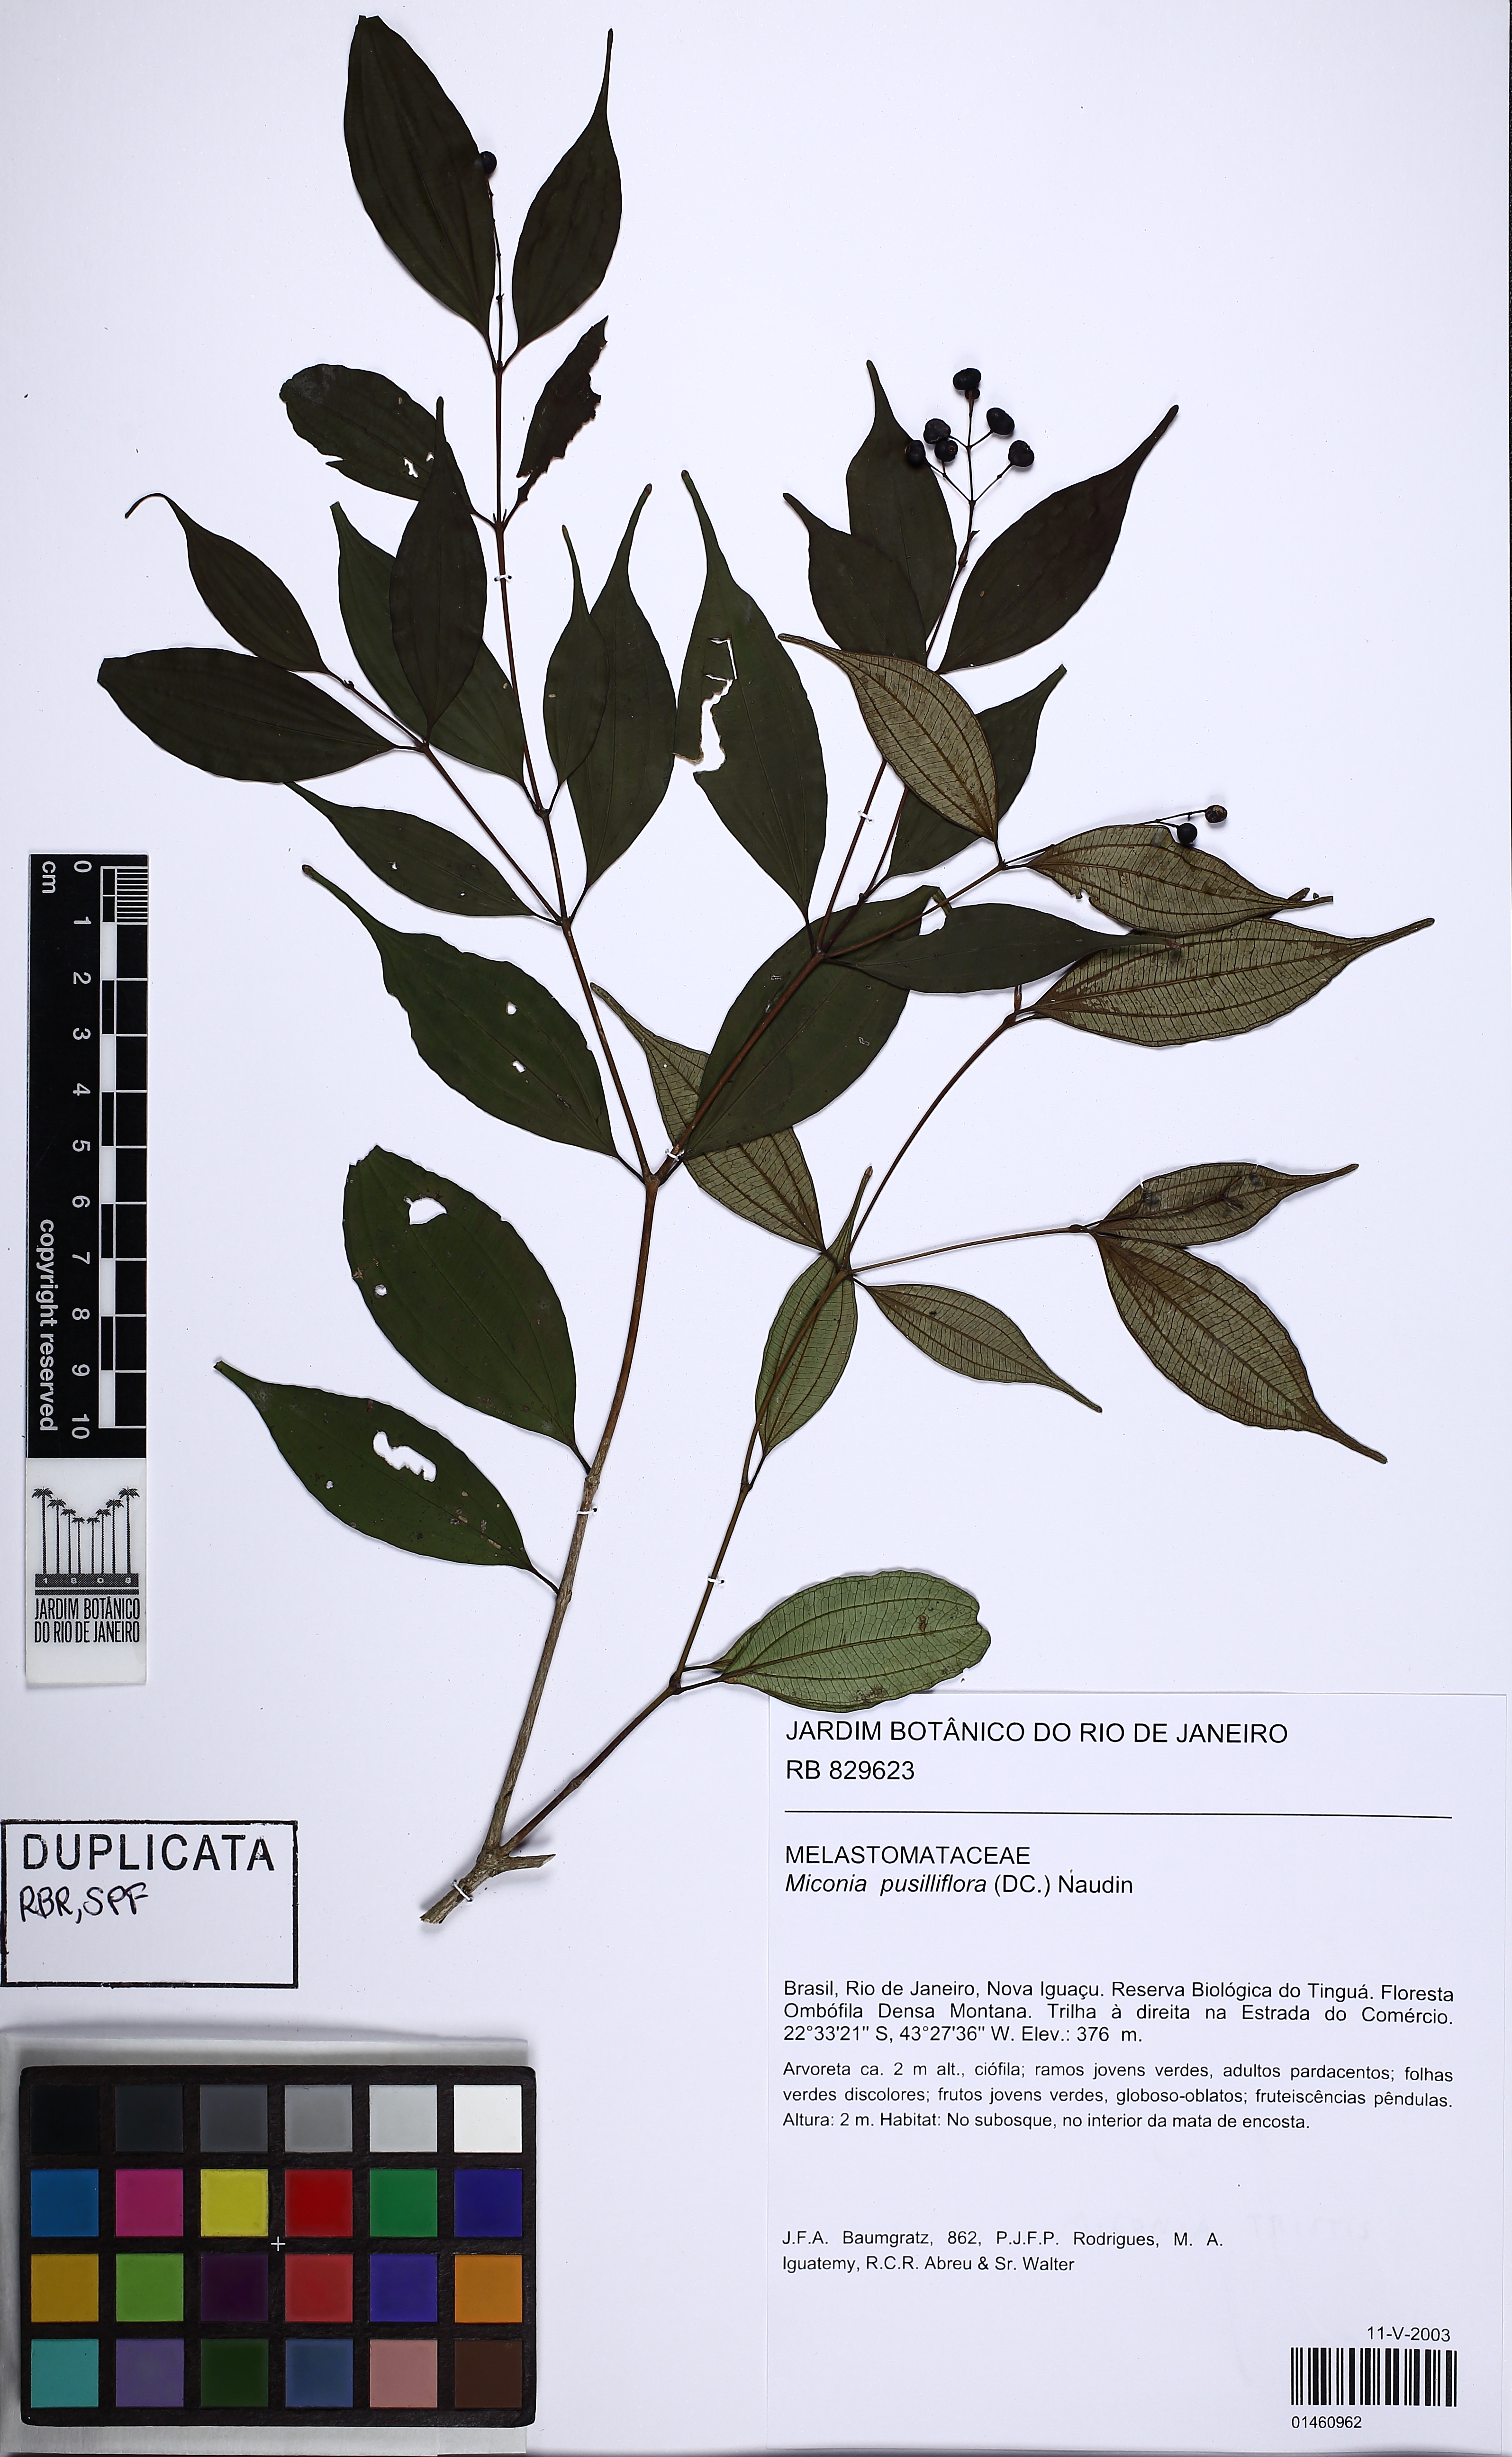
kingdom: Plantae
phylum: Tracheophyta
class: Magnoliopsida
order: Myrtales
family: Melastomataceae
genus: Miconia
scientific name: Miconia pusilliflora
